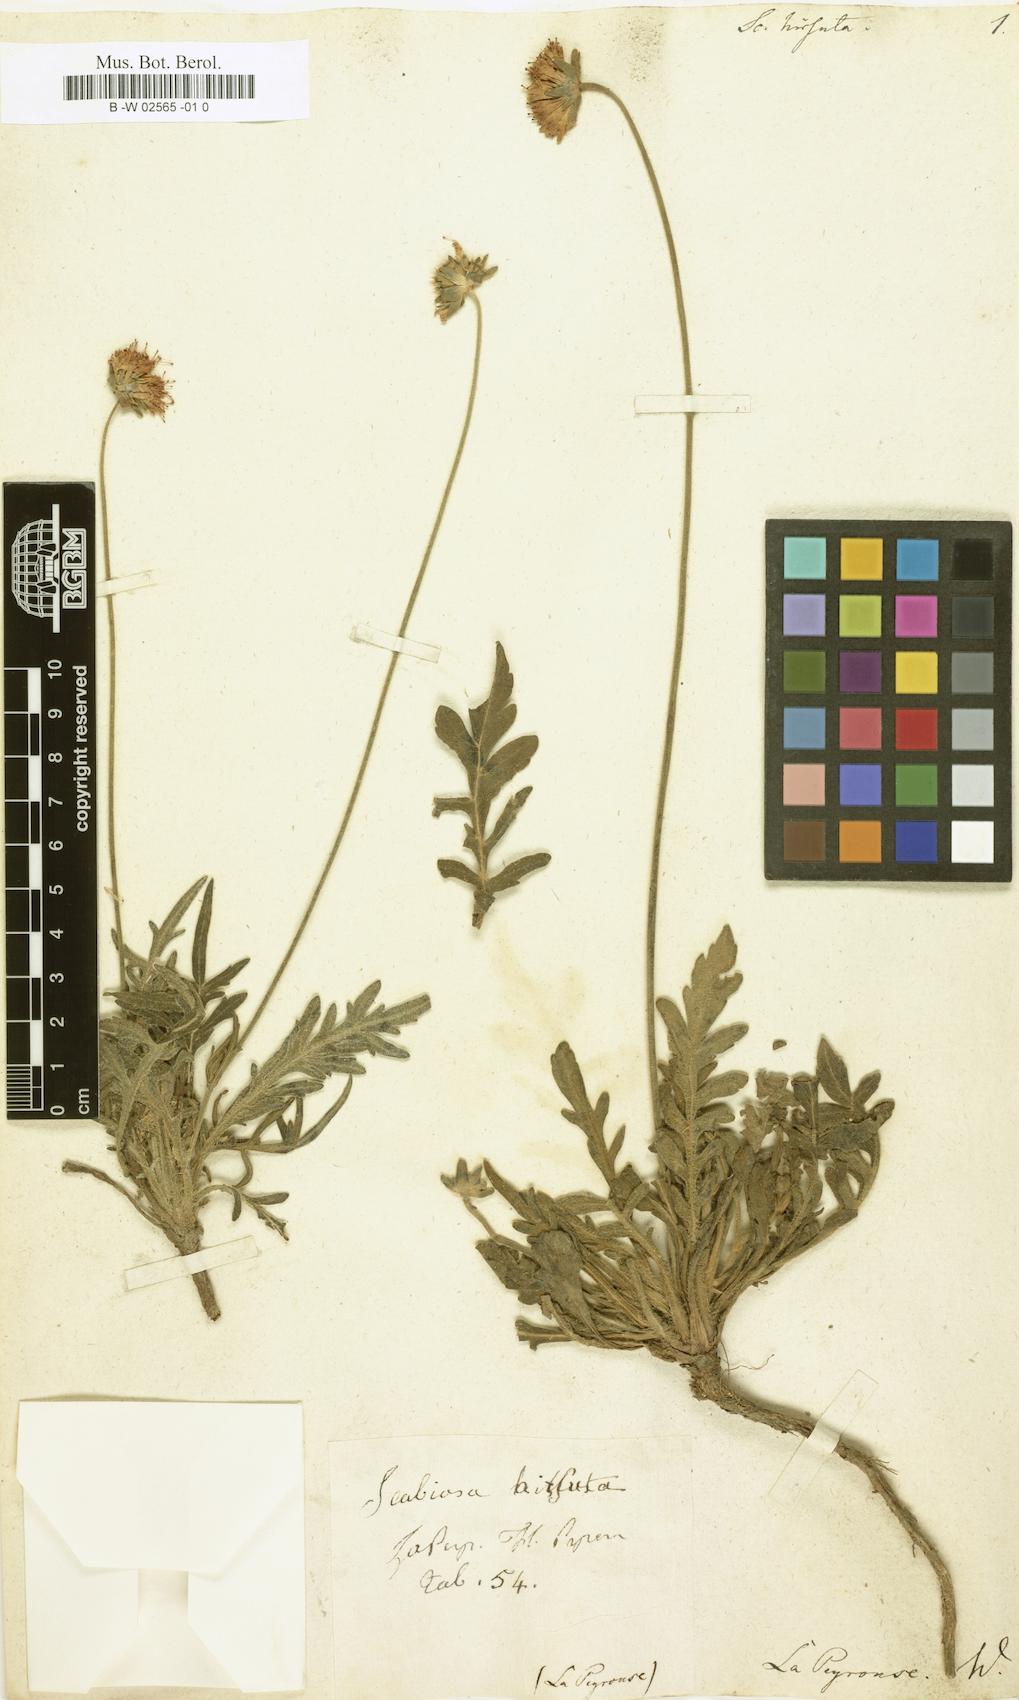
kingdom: Plantae
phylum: Tracheophyta
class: Magnoliopsida
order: Dipsacales
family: Caprifoliaceae
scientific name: Caprifoliaceae
